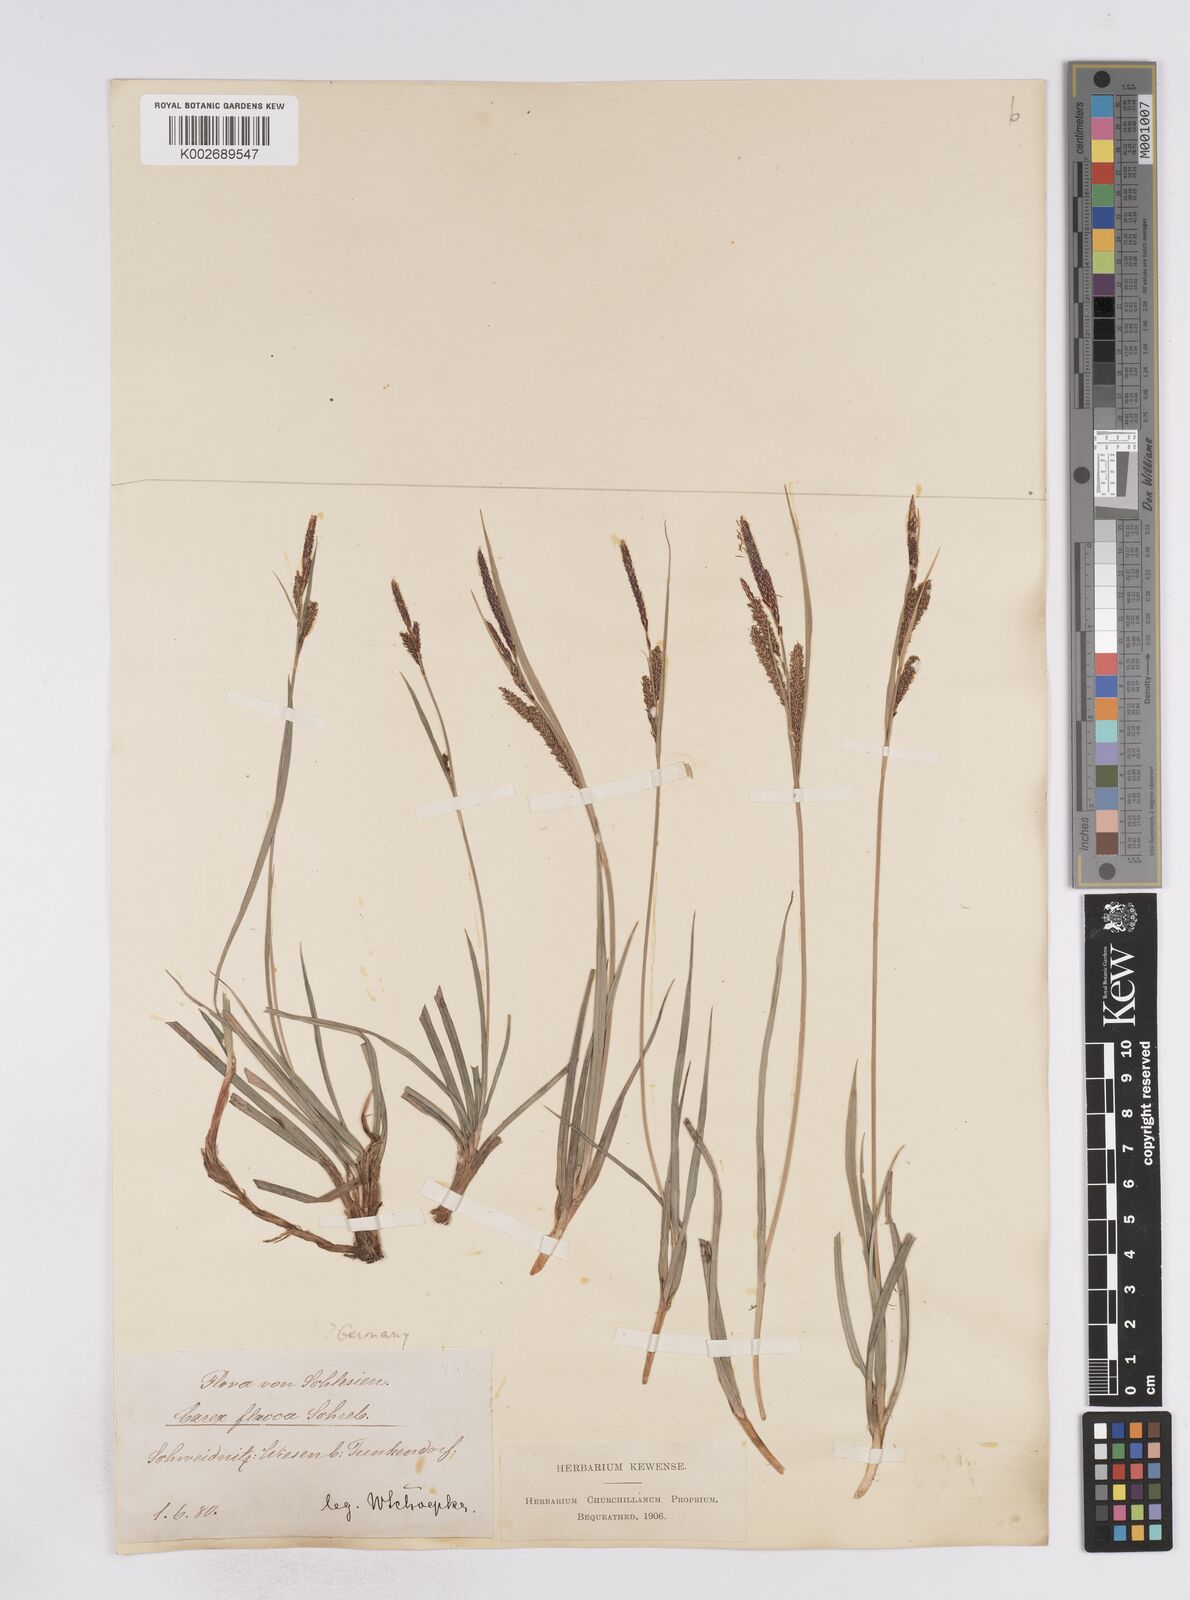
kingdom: Plantae
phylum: Tracheophyta
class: Liliopsida
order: Poales
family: Cyperaceae
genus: Carex
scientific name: Carex flacca
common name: Glaucous sedge
